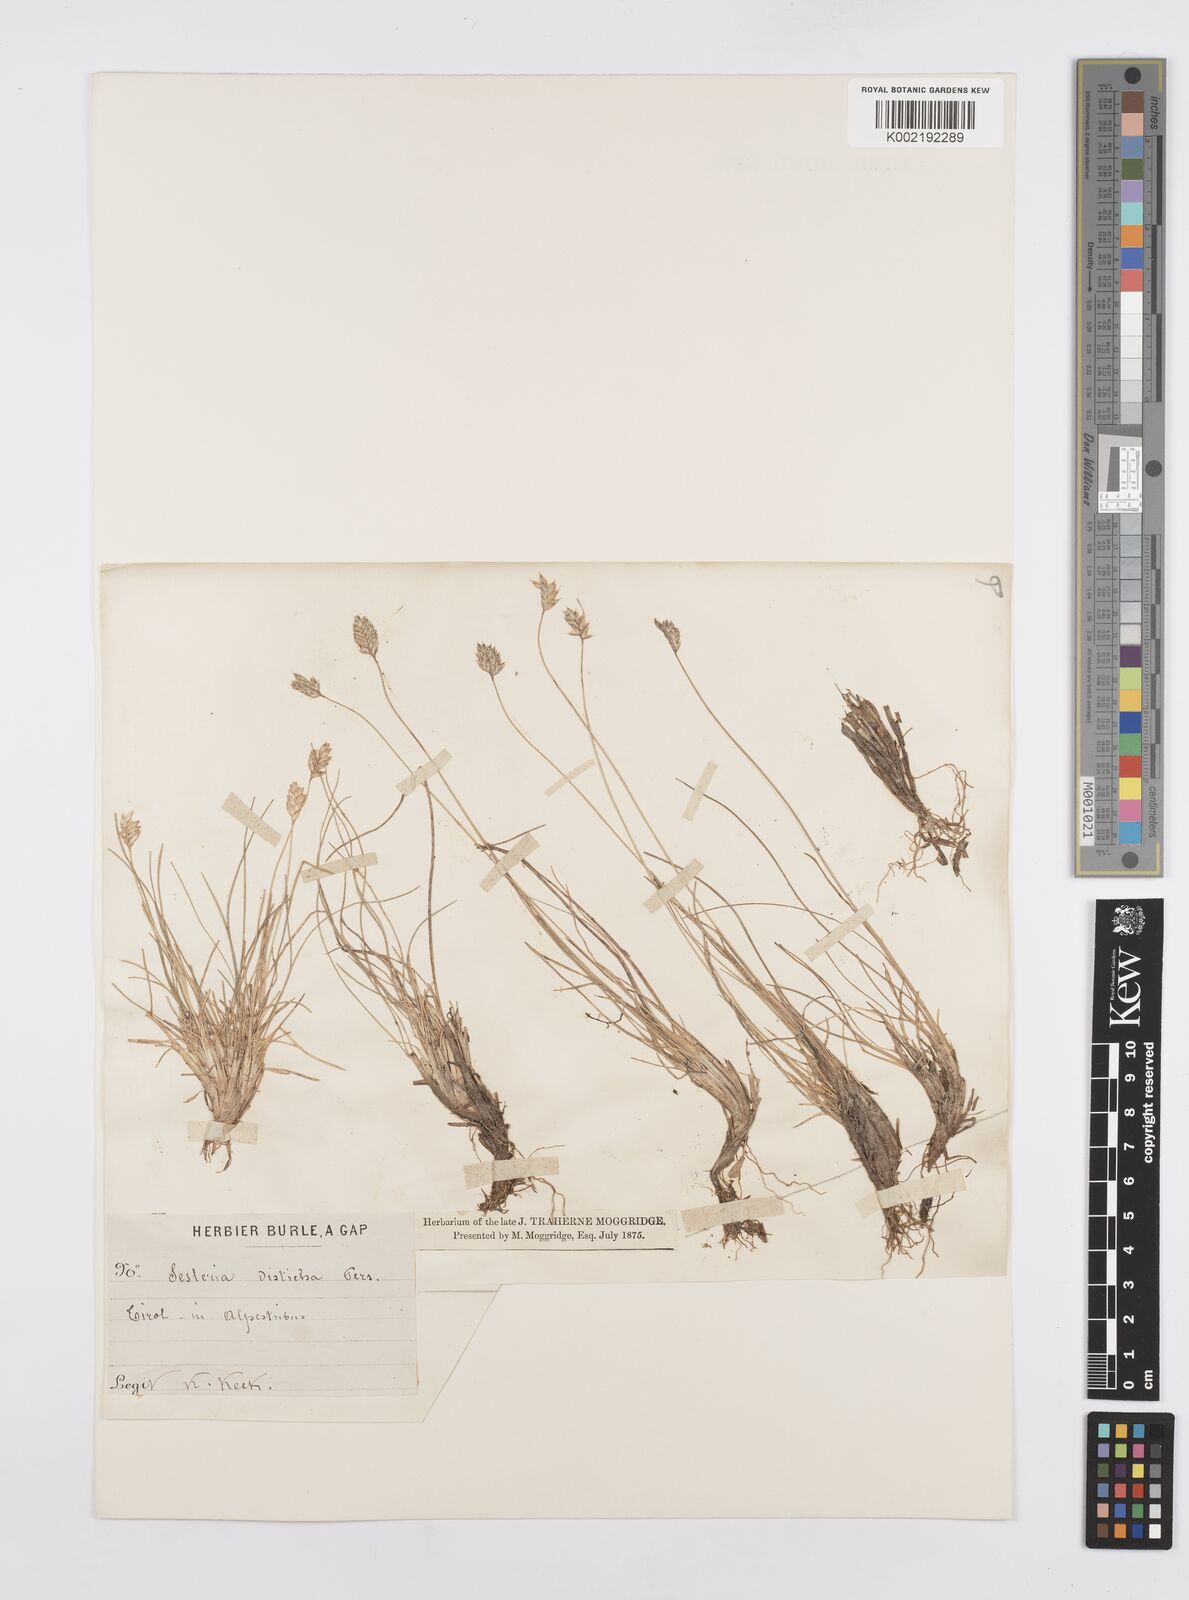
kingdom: Plantae
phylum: Tracheophyta
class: Liliopsida
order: Poales
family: Poaceae
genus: Oreochloa
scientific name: Oreochloa disticha
